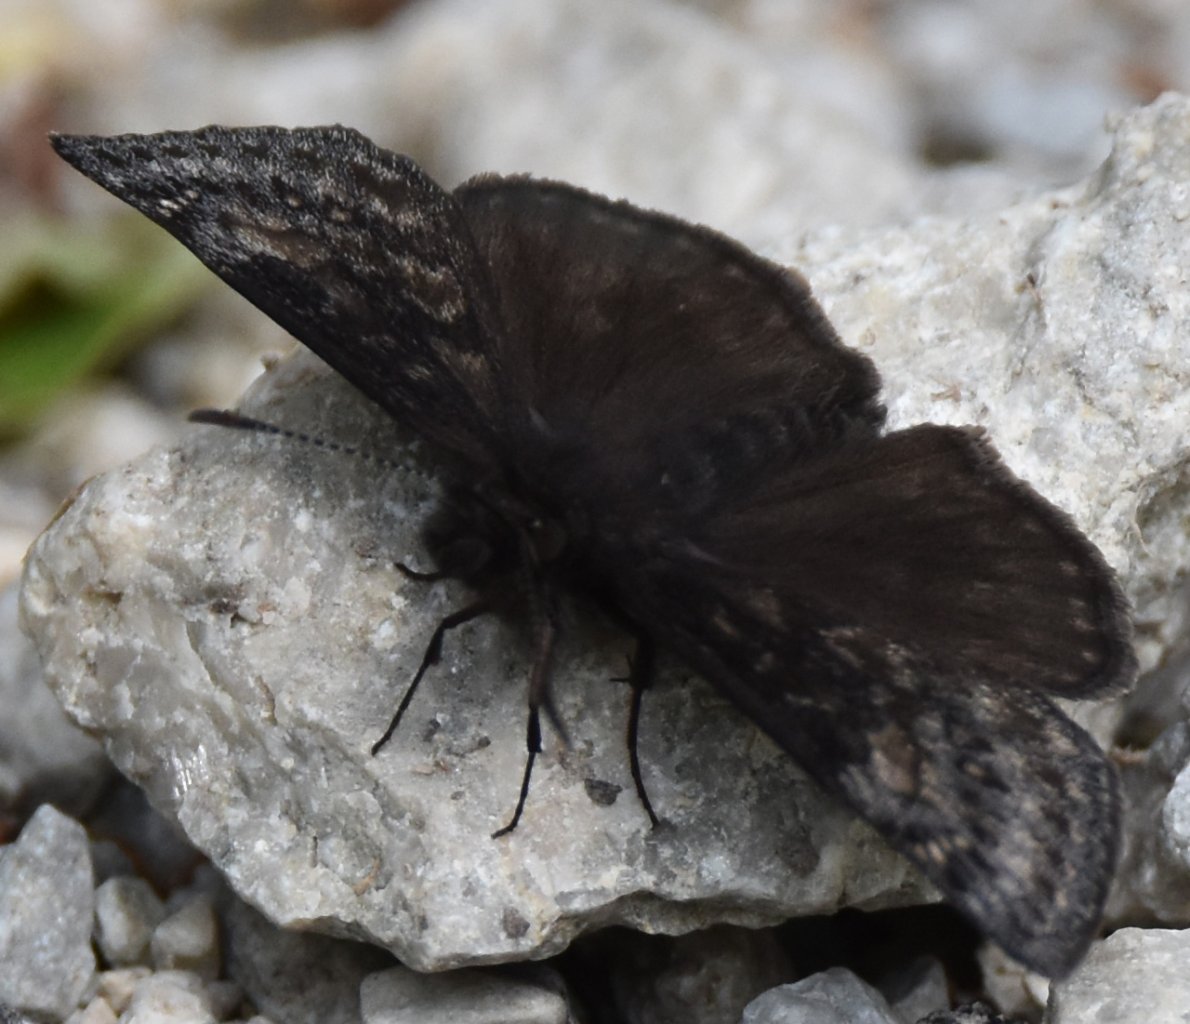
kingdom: Animalia
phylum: Arthropoda
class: Insecta
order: Lepidoptera
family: Hesperiidae
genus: Erynnis
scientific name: Erynnis
